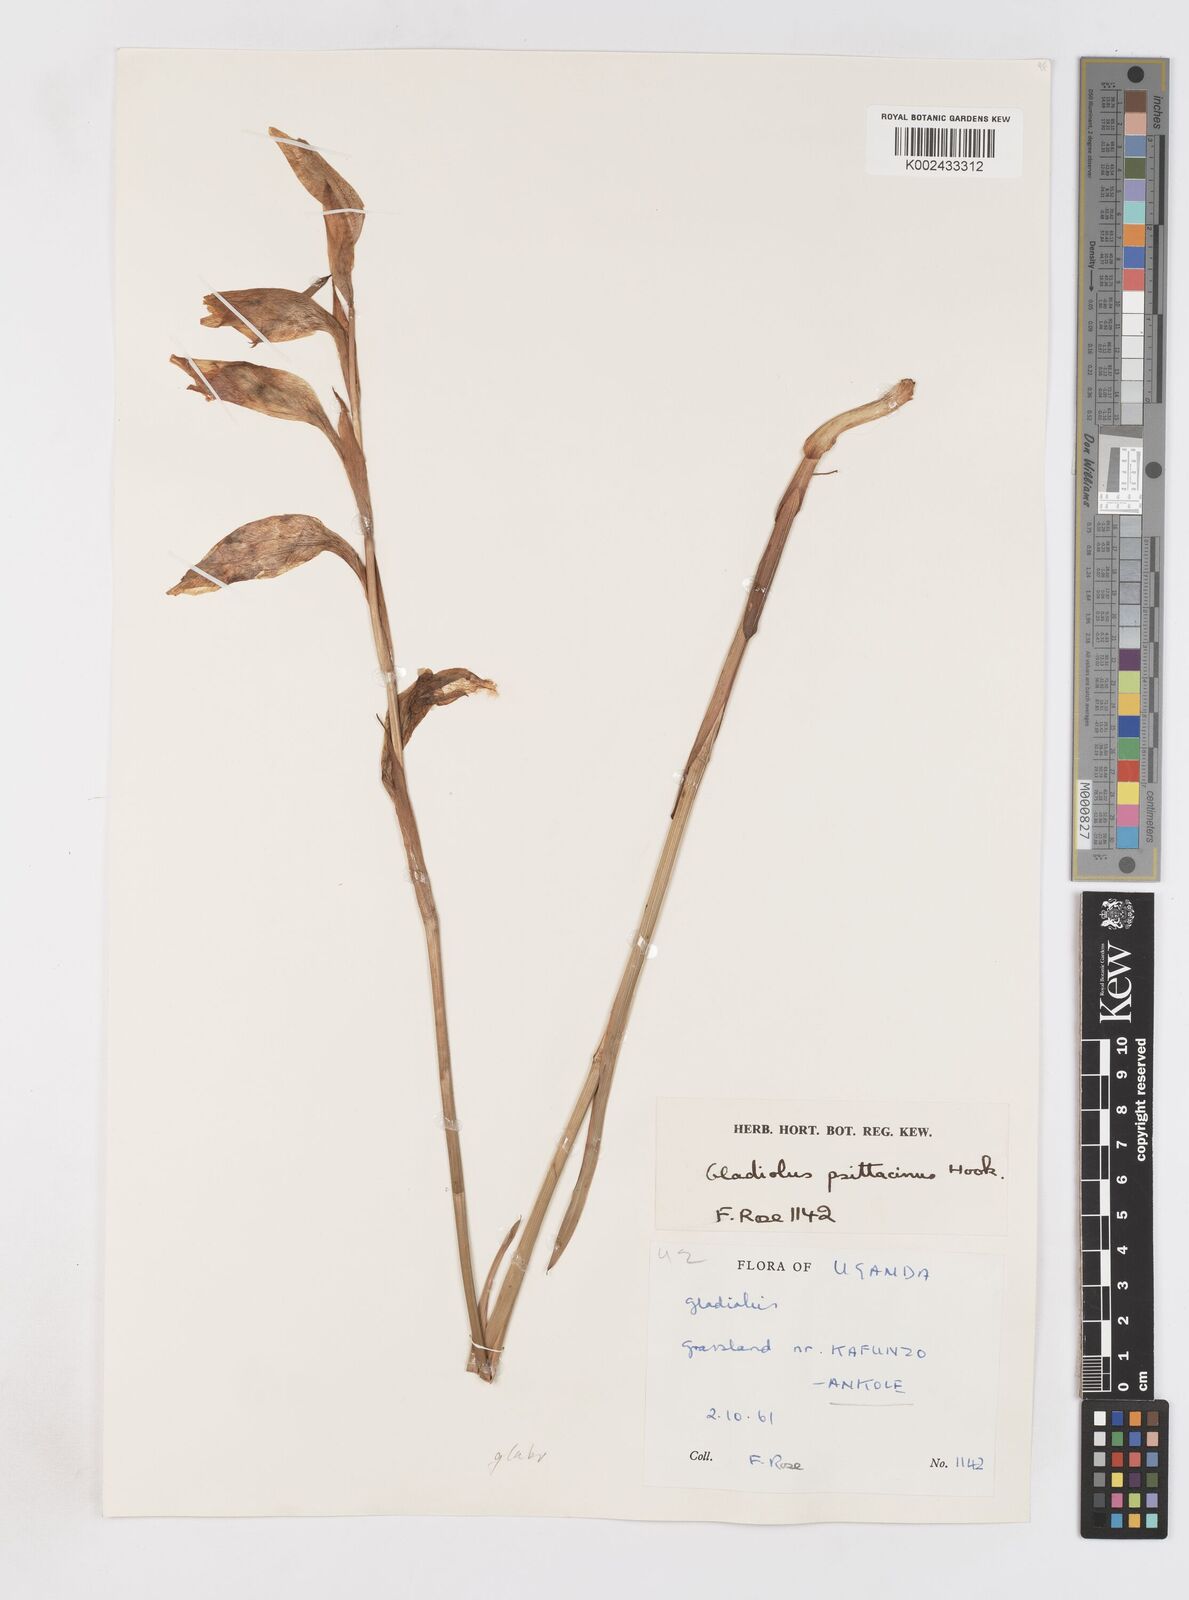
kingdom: Plantae
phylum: Tracheophyta
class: Liliopsida
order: Asparagales
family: Iridaceae
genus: Gladiolus
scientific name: Gladiolus dalenii
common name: Cornflag
